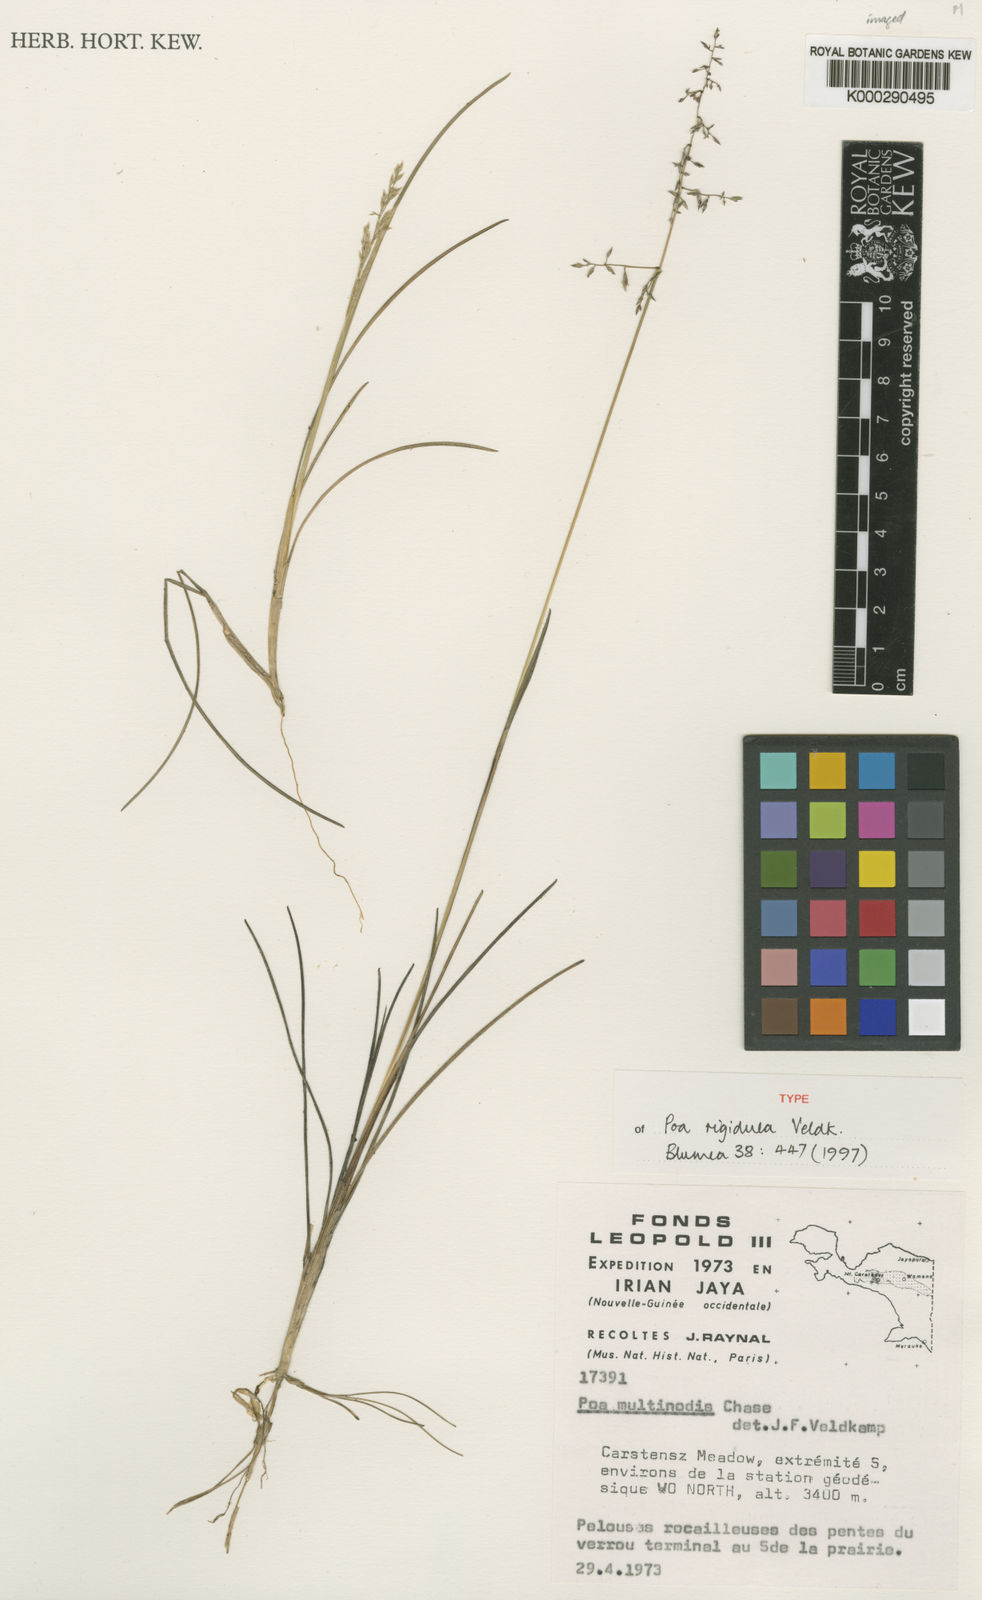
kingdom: Plantae
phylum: Tracheophyta
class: Liliopsida
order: Poales
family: Poaceae
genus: Poa
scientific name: Poa rigidula
